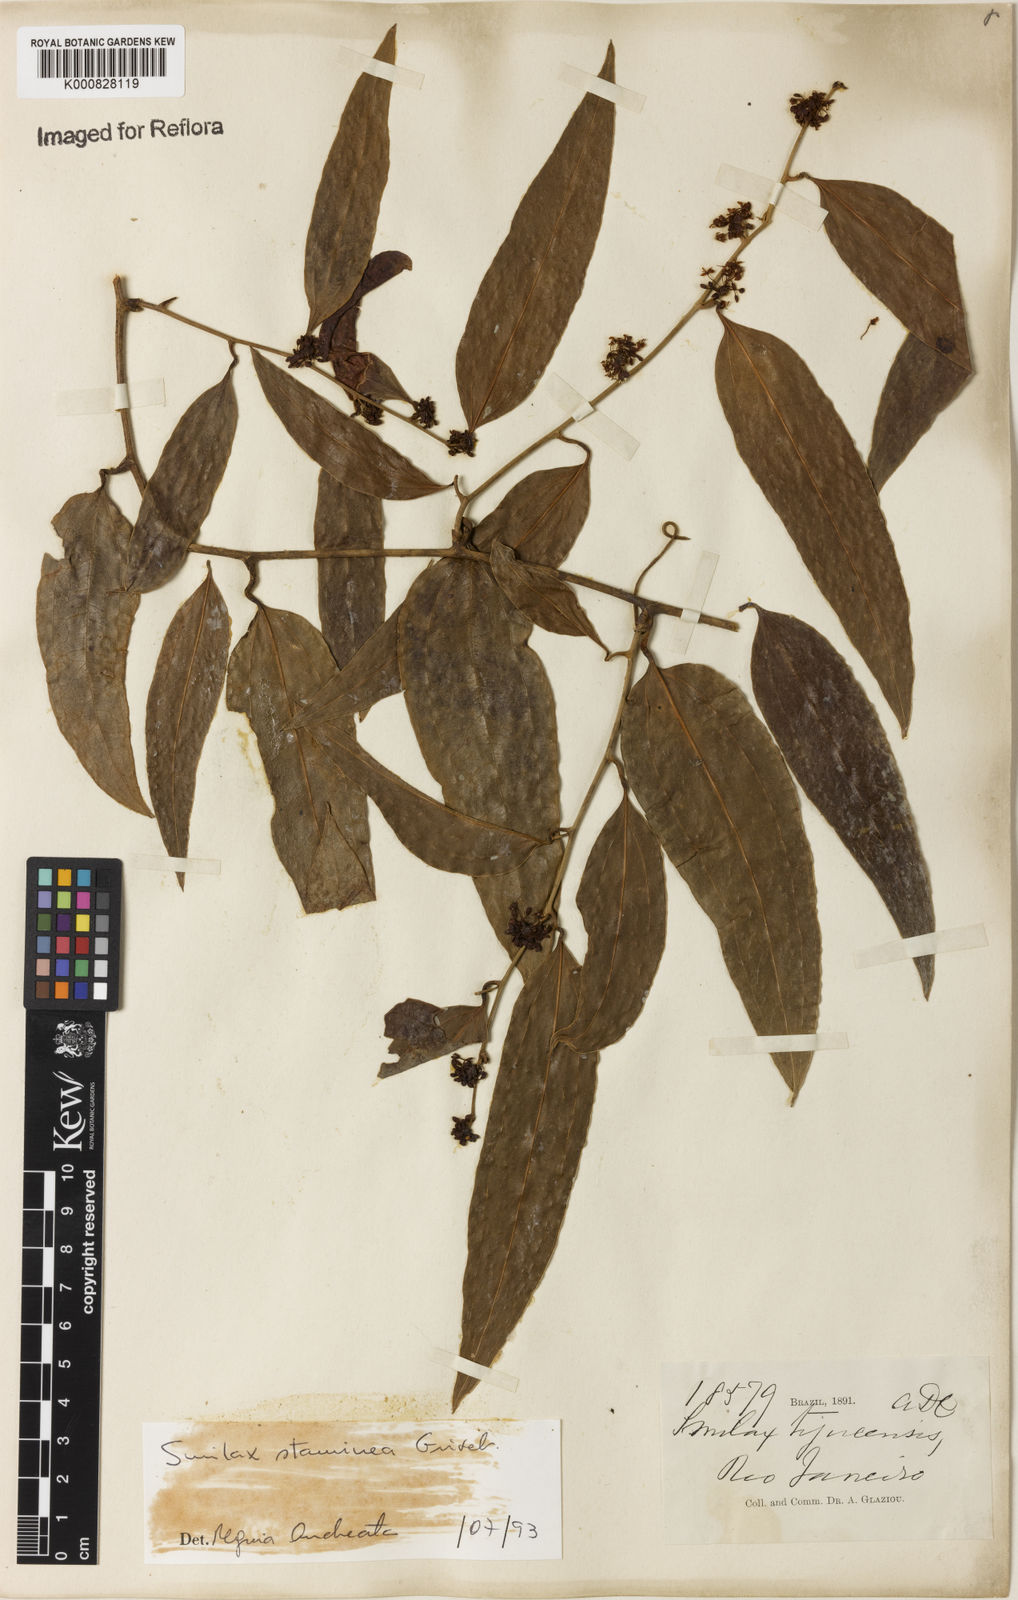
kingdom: Plantae
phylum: Tracheophyta
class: Liliopsida
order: Liliales
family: Smilacaceae
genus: Smilax
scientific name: Smilax domingensis
